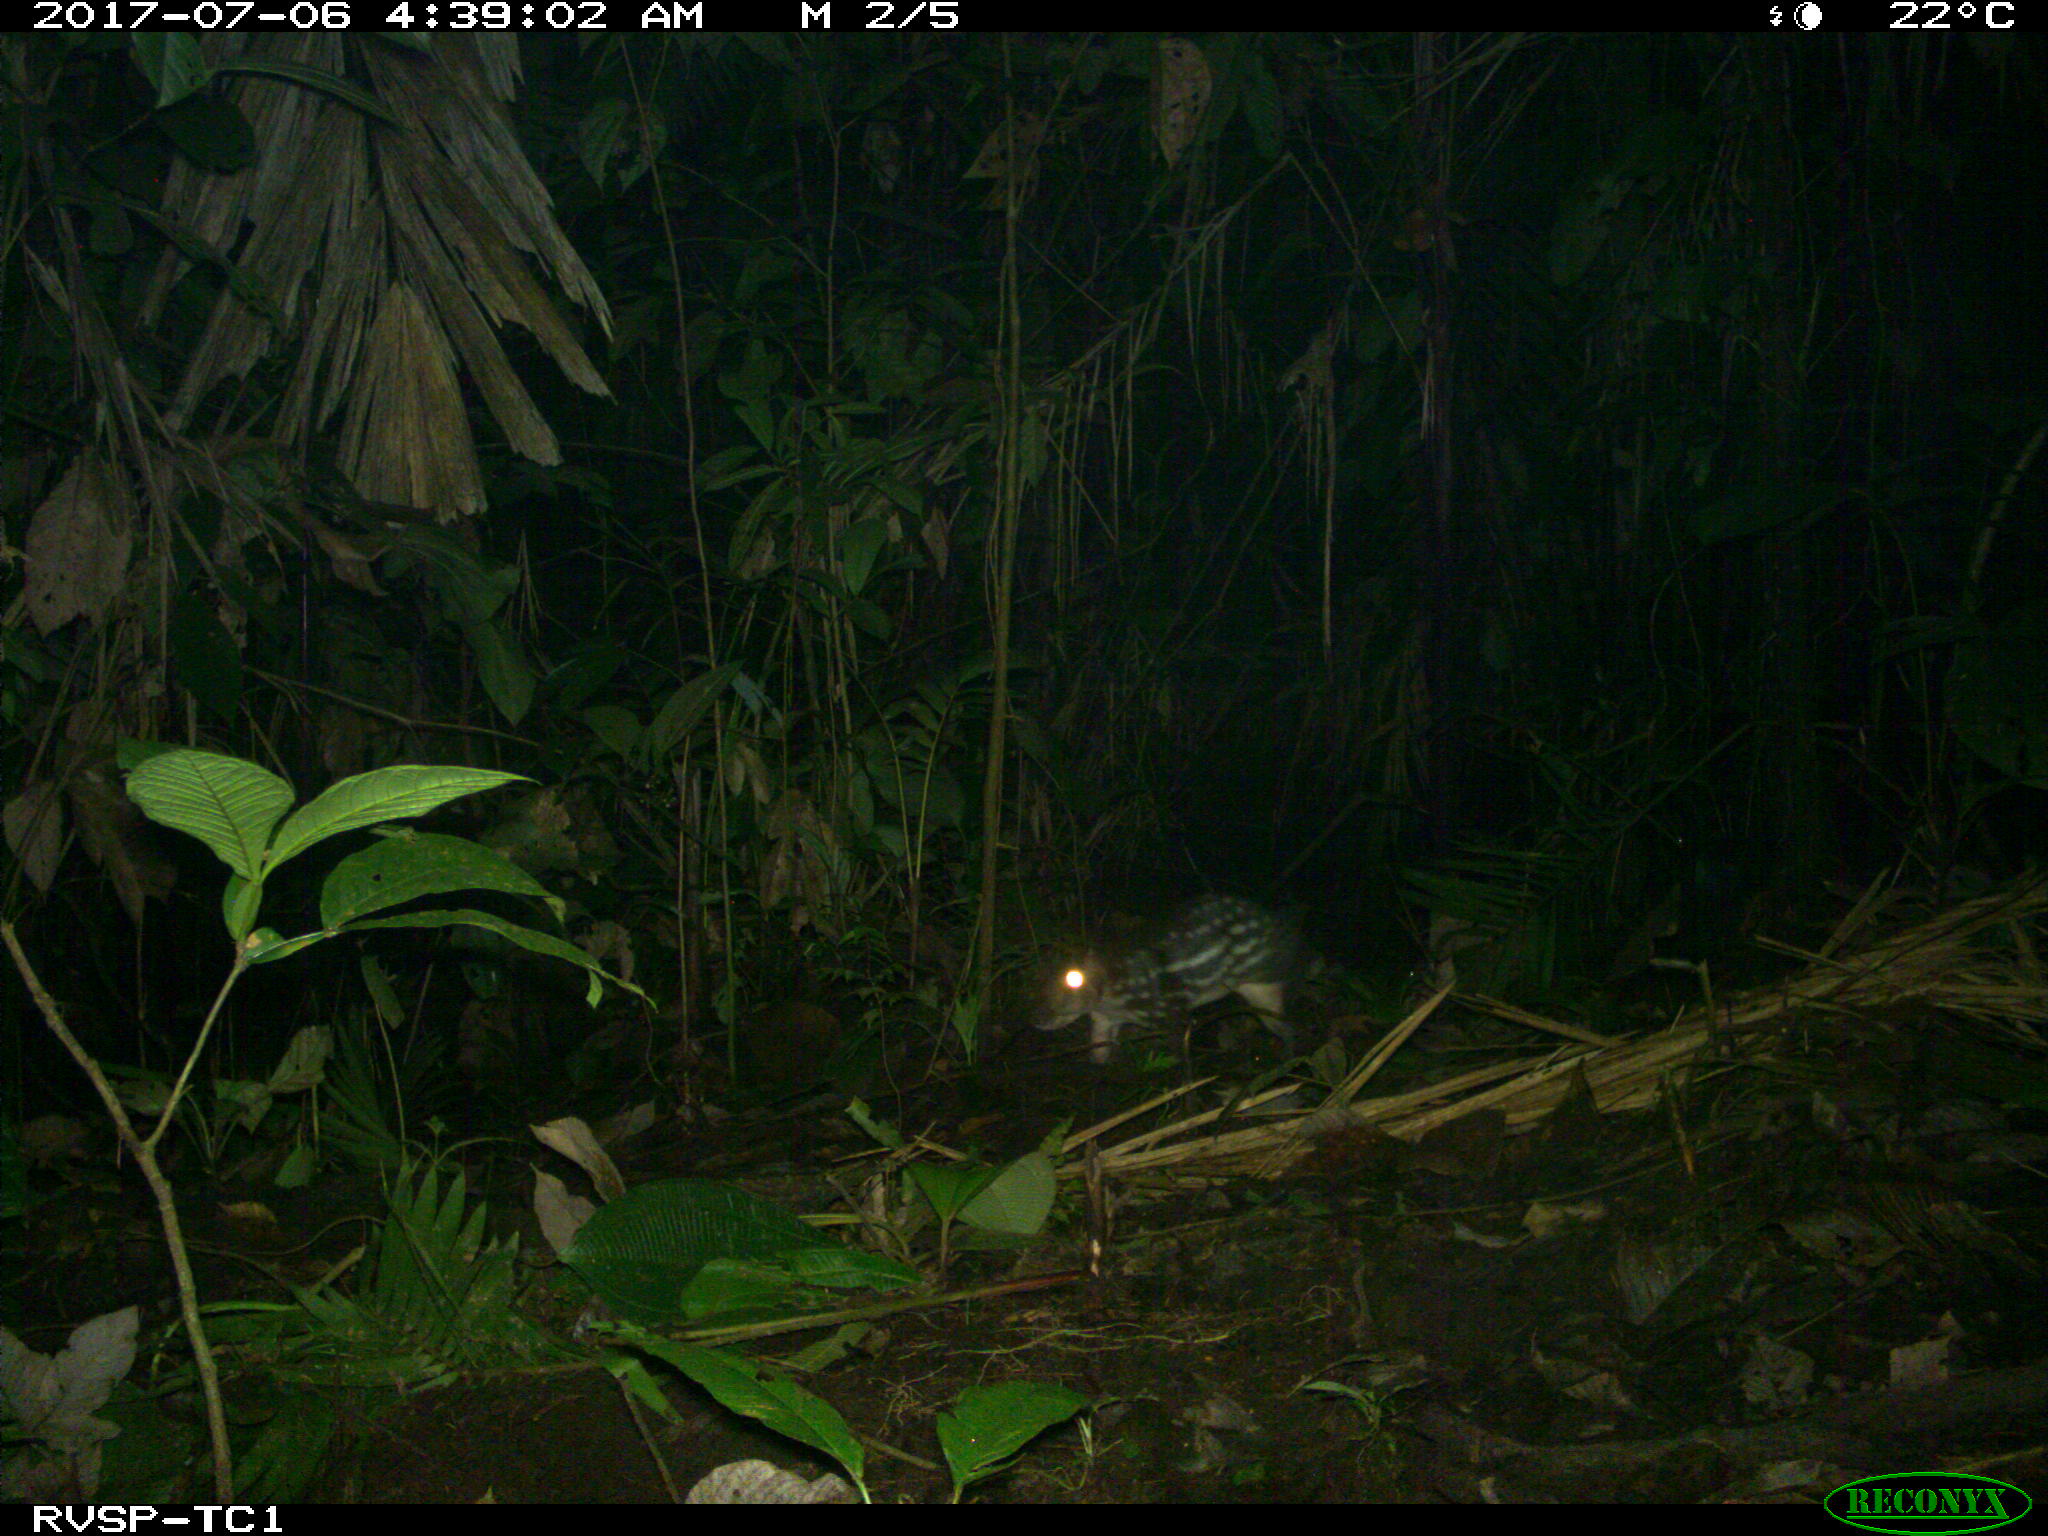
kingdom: Animalia
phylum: Chordata
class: Mammalia
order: Rodentia
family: Cuniculidae
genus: Cuniculus
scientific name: Cuniculus paca
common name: Lowland paca
